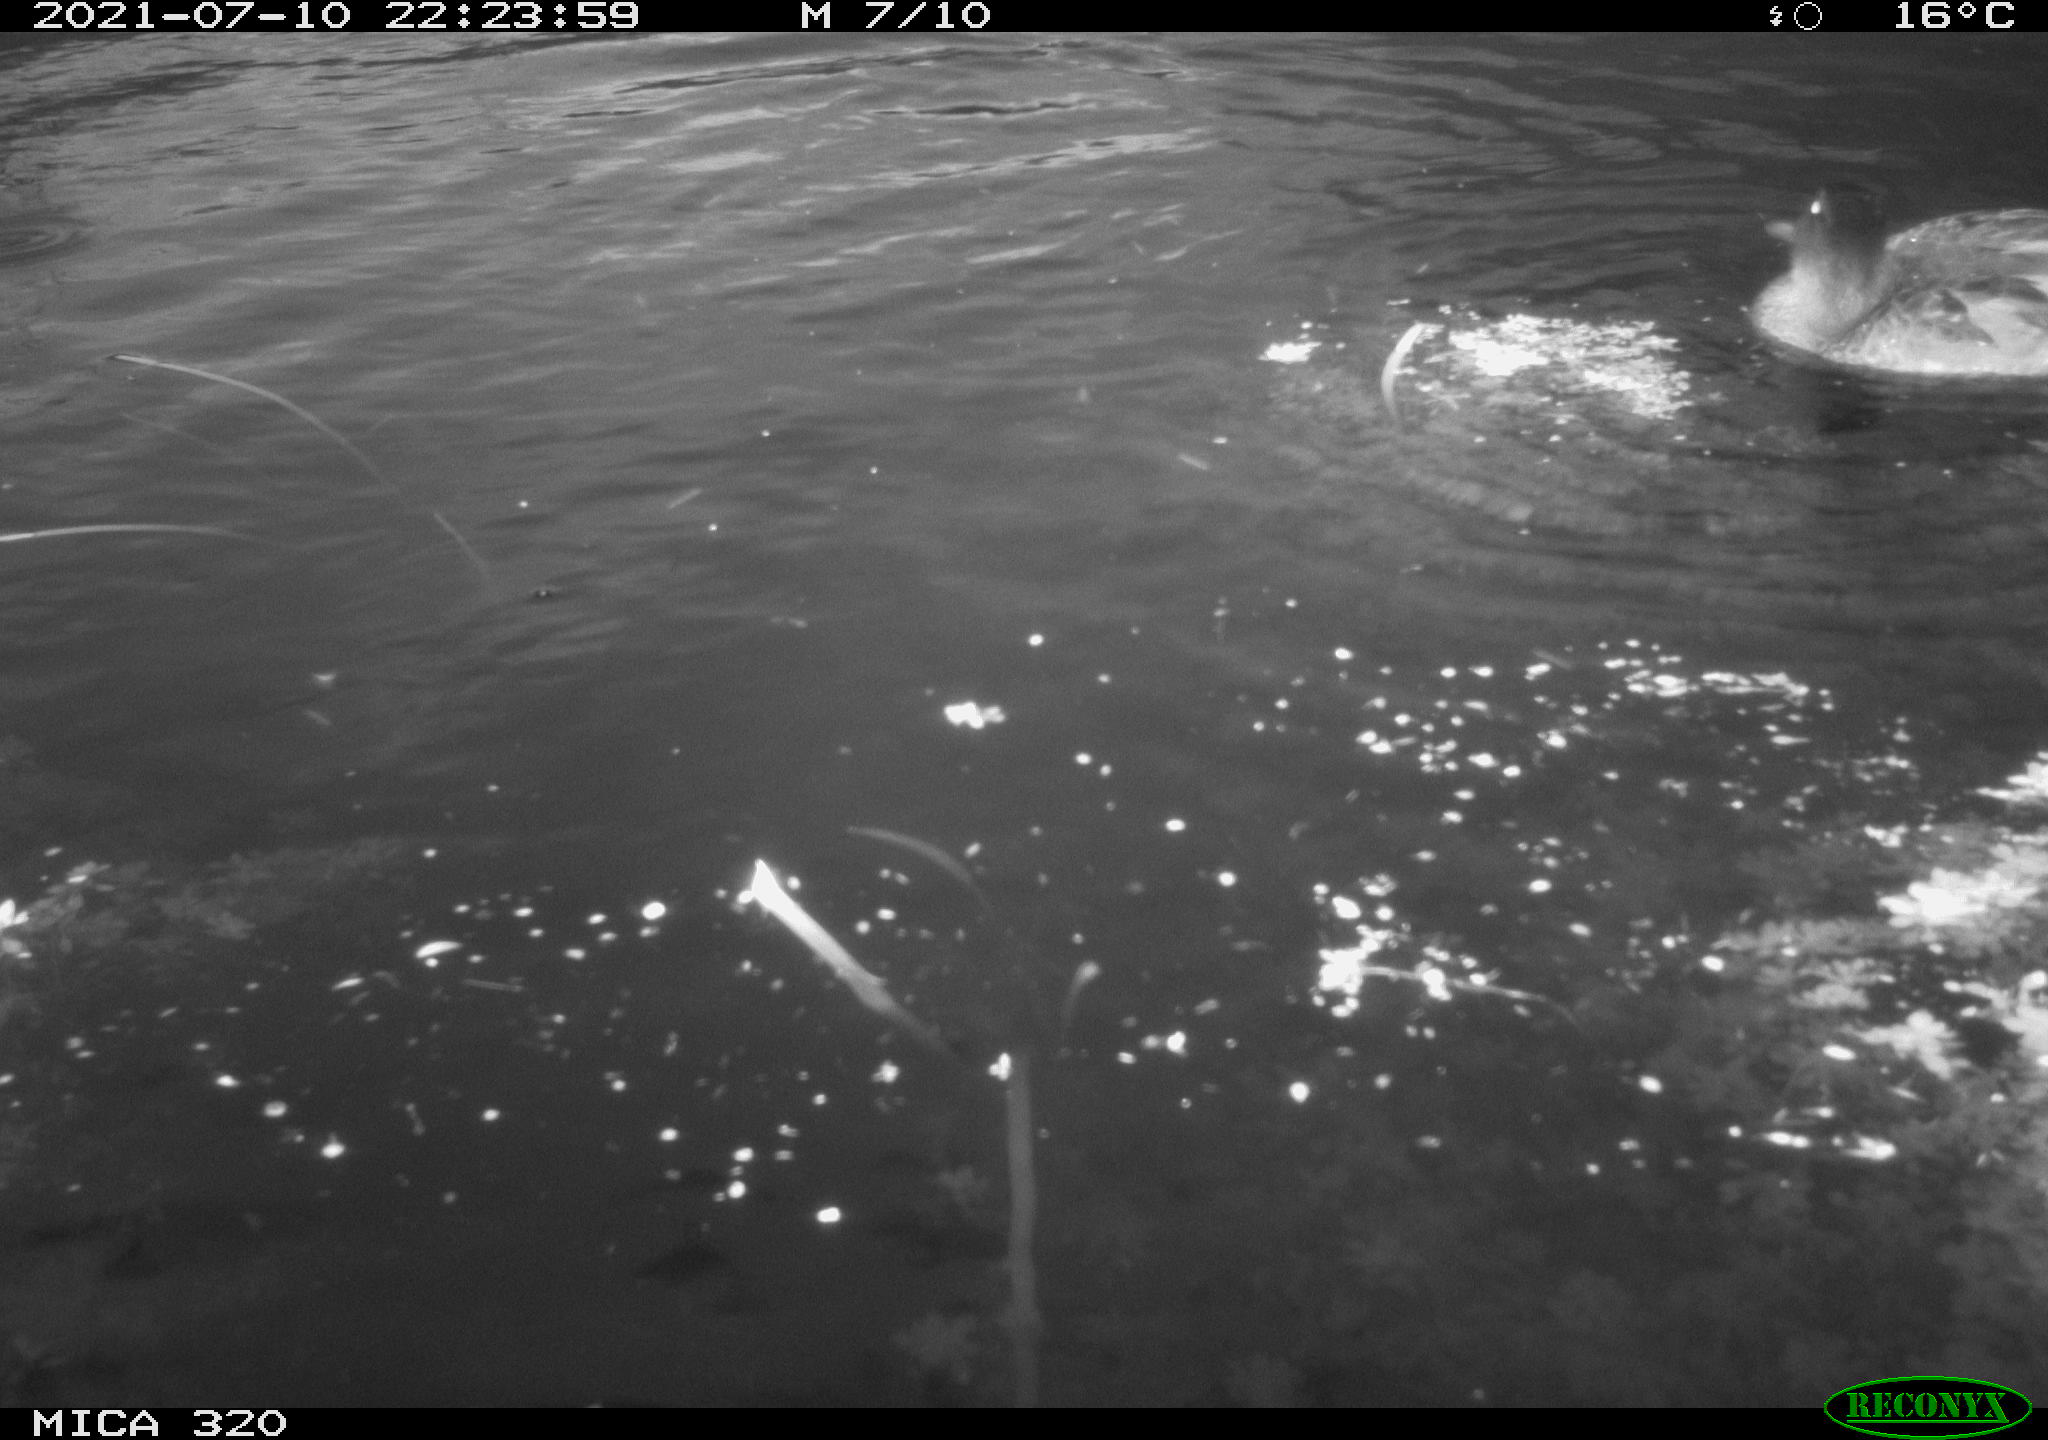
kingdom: Animalia
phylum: Chordata
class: Aves
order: Anseriformes
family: Anatidae
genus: Mareca
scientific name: Mareca strepera
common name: Gadwall
